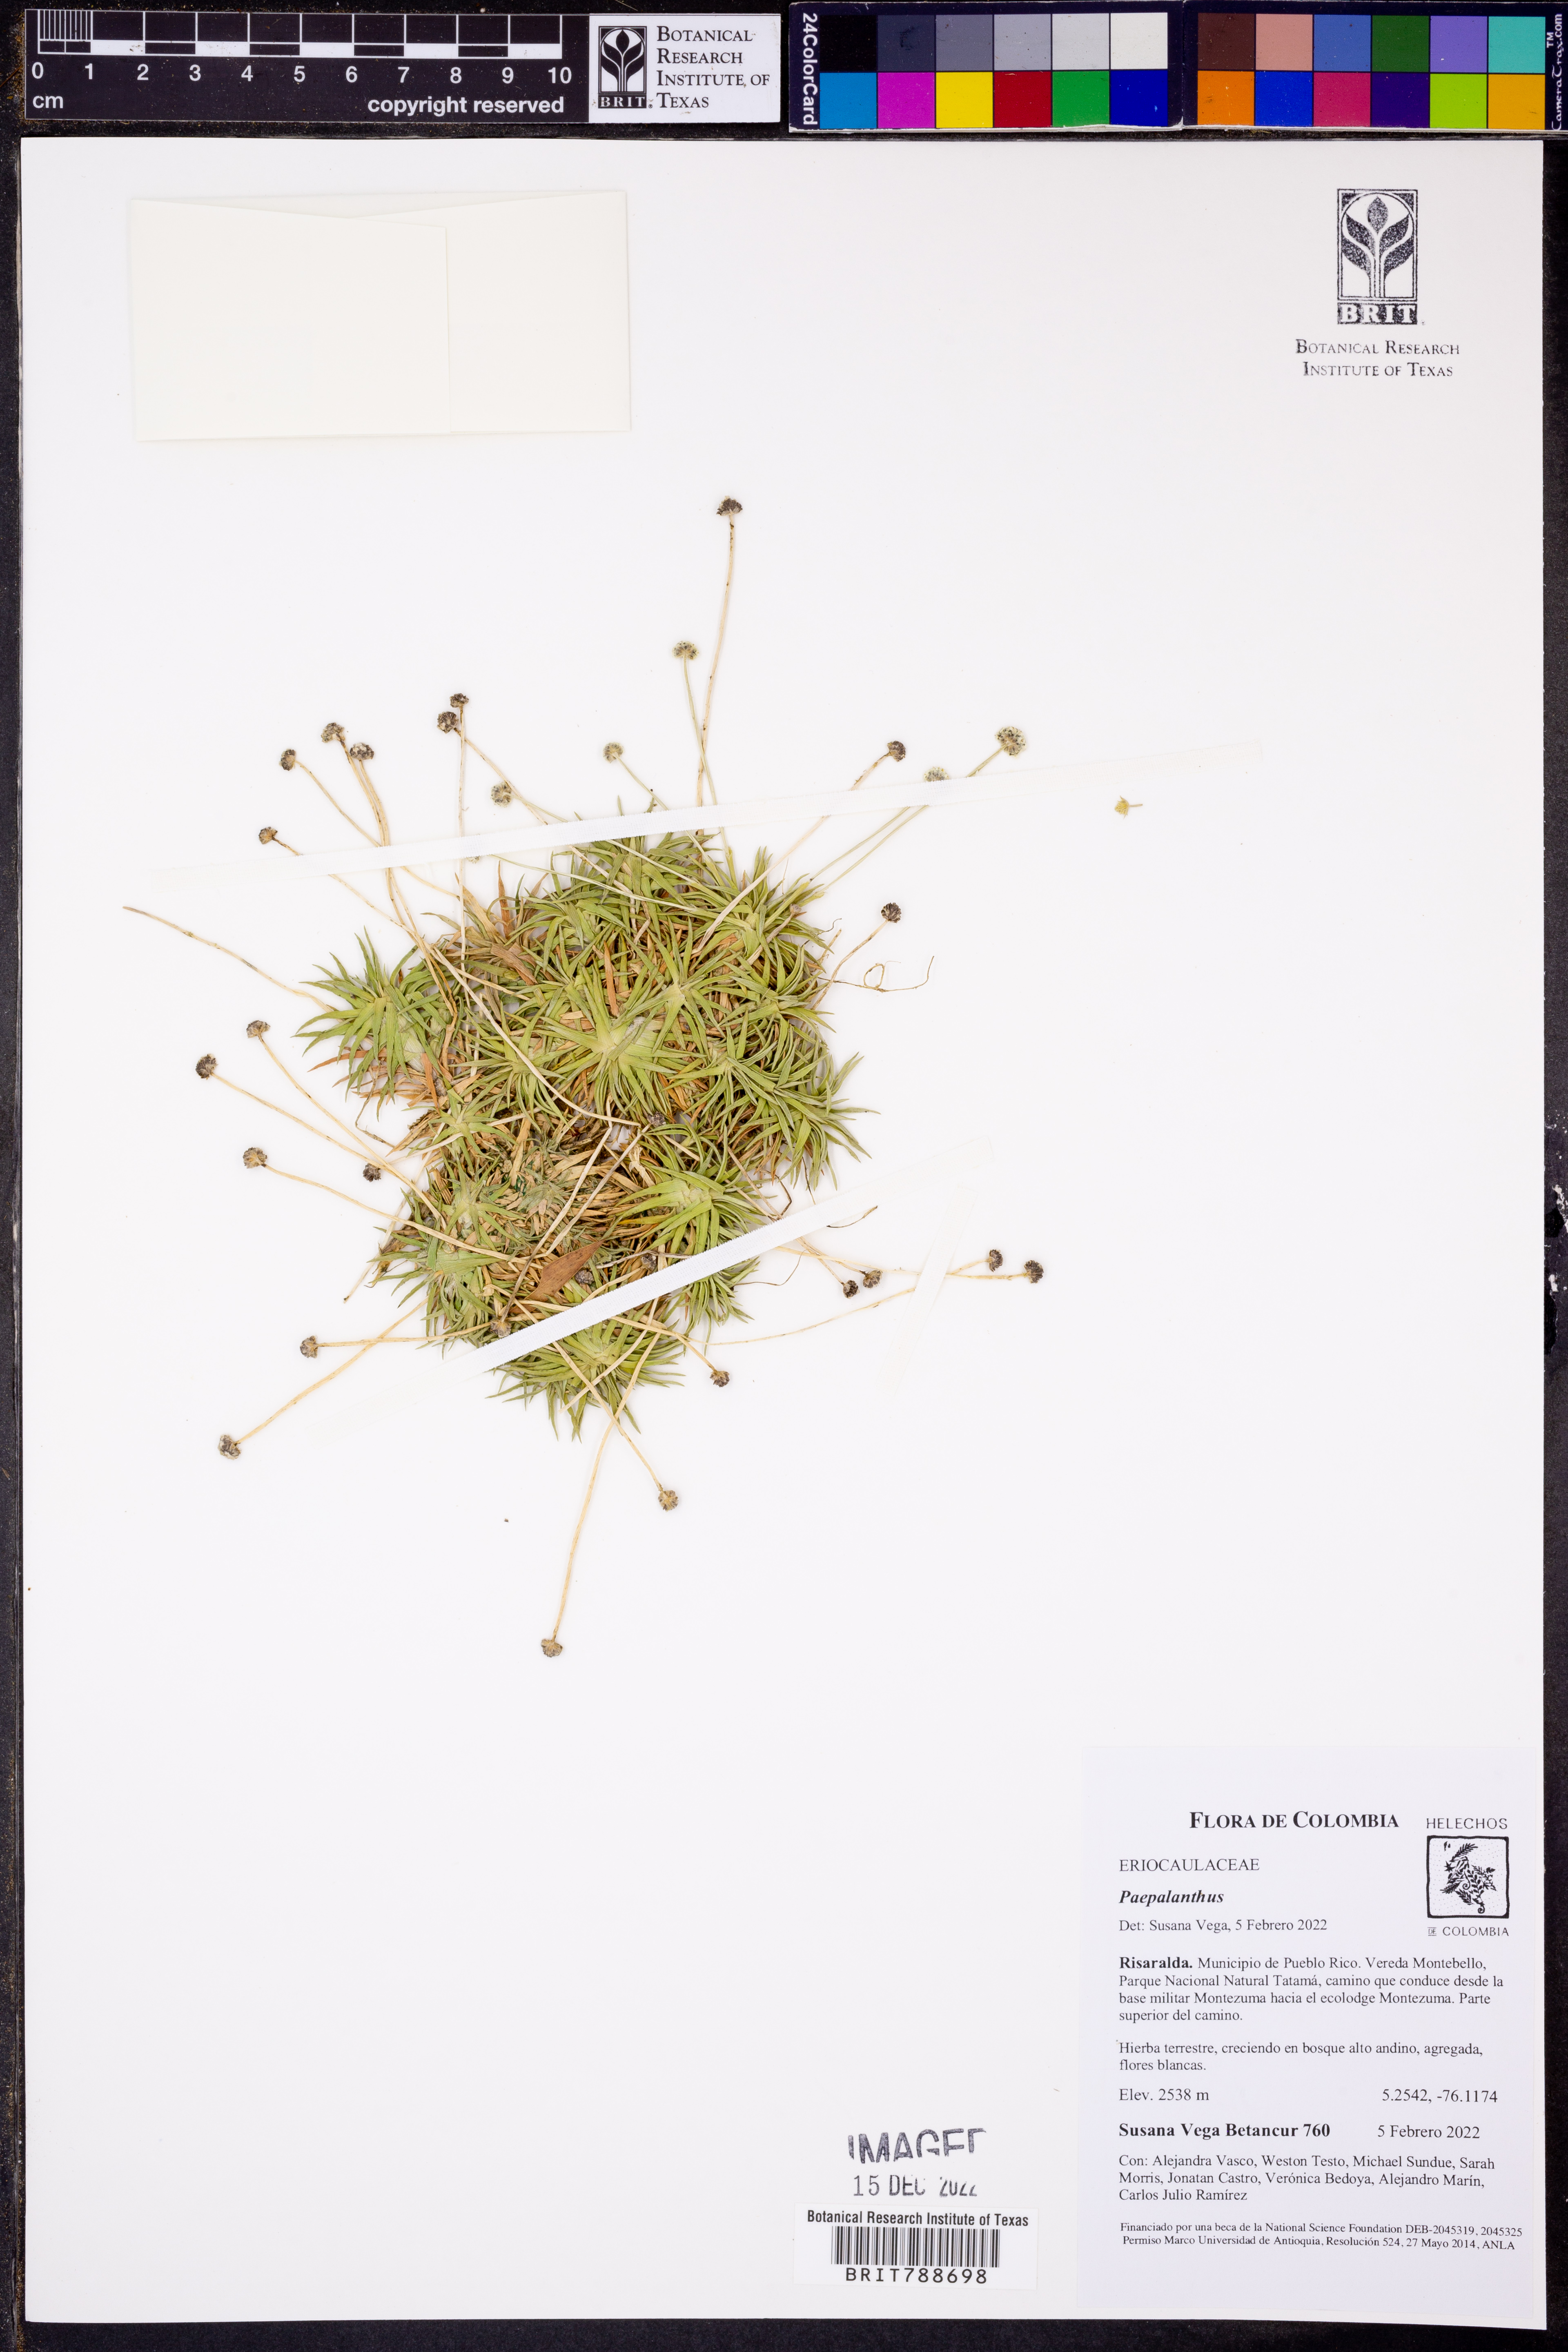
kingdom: Plantae
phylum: Tracheophyta
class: Liliopsida
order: Poales
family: Eriocaulaceae
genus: Paepalanthus
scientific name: Paepalanthus
